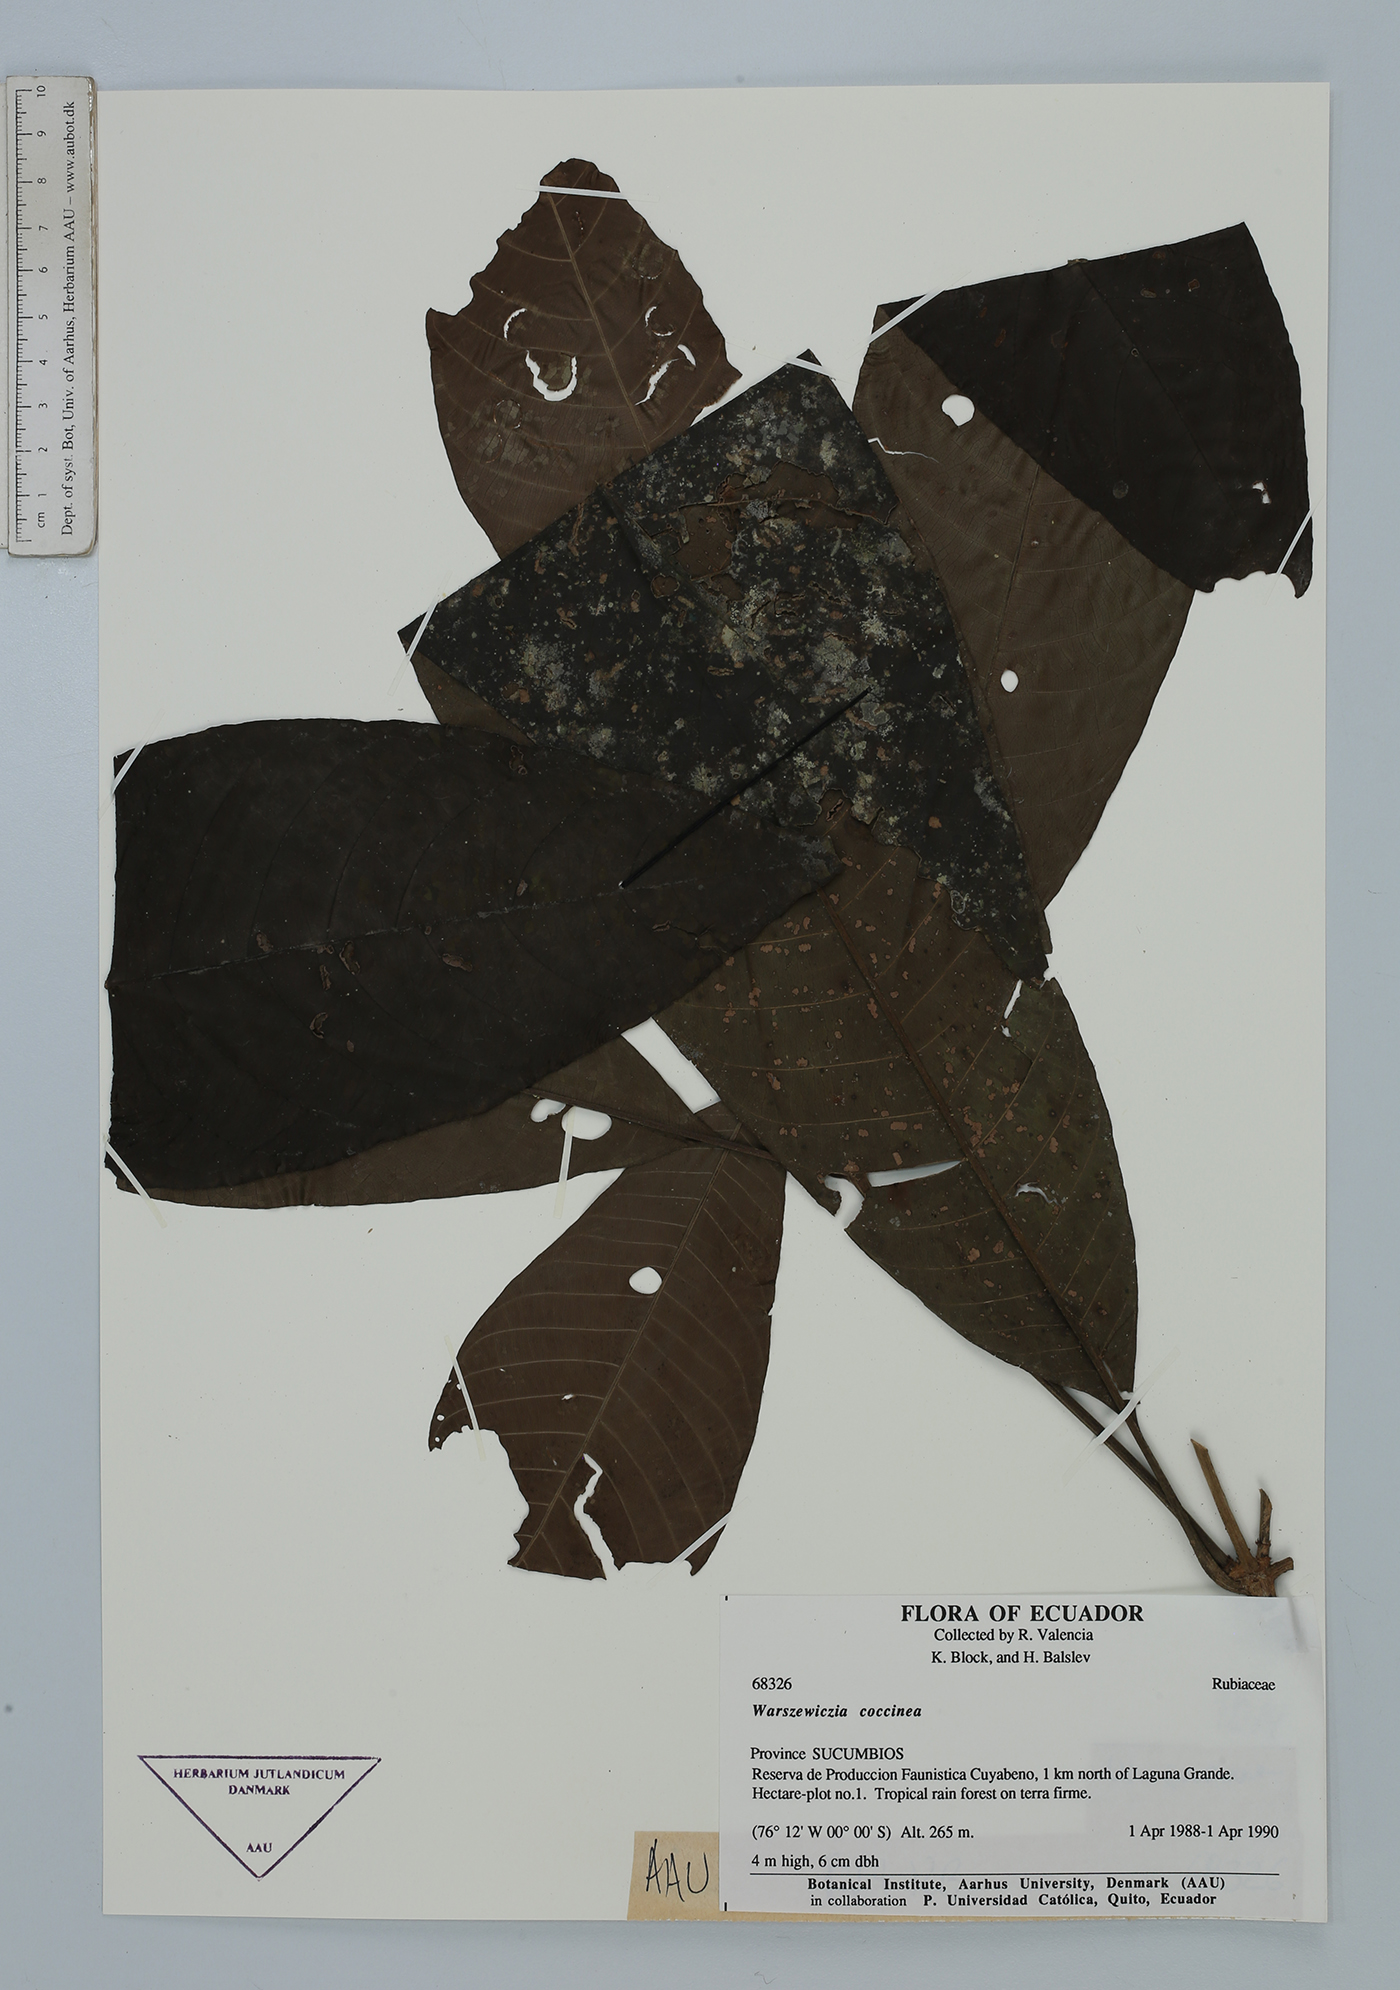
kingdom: Plantae
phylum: Tracheophyta
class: Magnoliopsida
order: Gentianales
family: Rubiaceae
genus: Warszewiczia
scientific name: Warszewiczia coccinea
